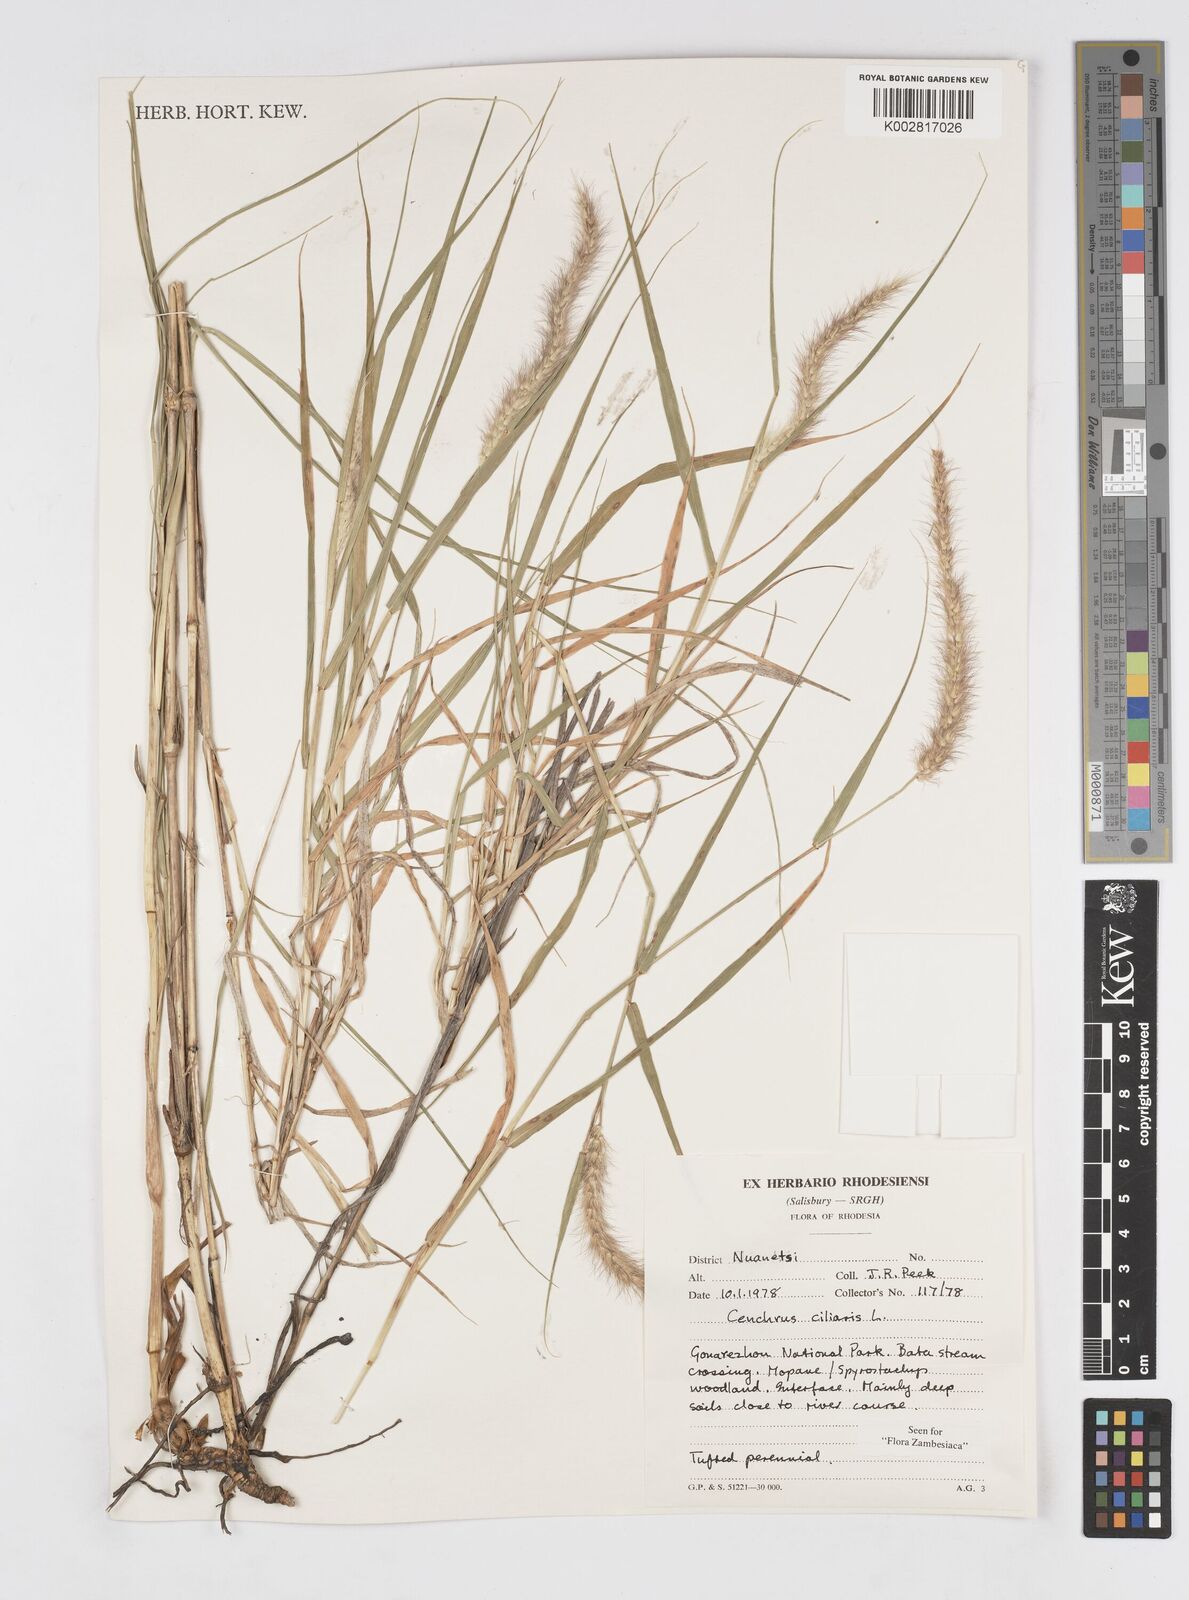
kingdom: Plantae
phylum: Tracheophyta
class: Liliopsida
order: Poales
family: Poaceae
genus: Cenchrus
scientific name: Cenchrus ciliaris
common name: Buffelgrass
